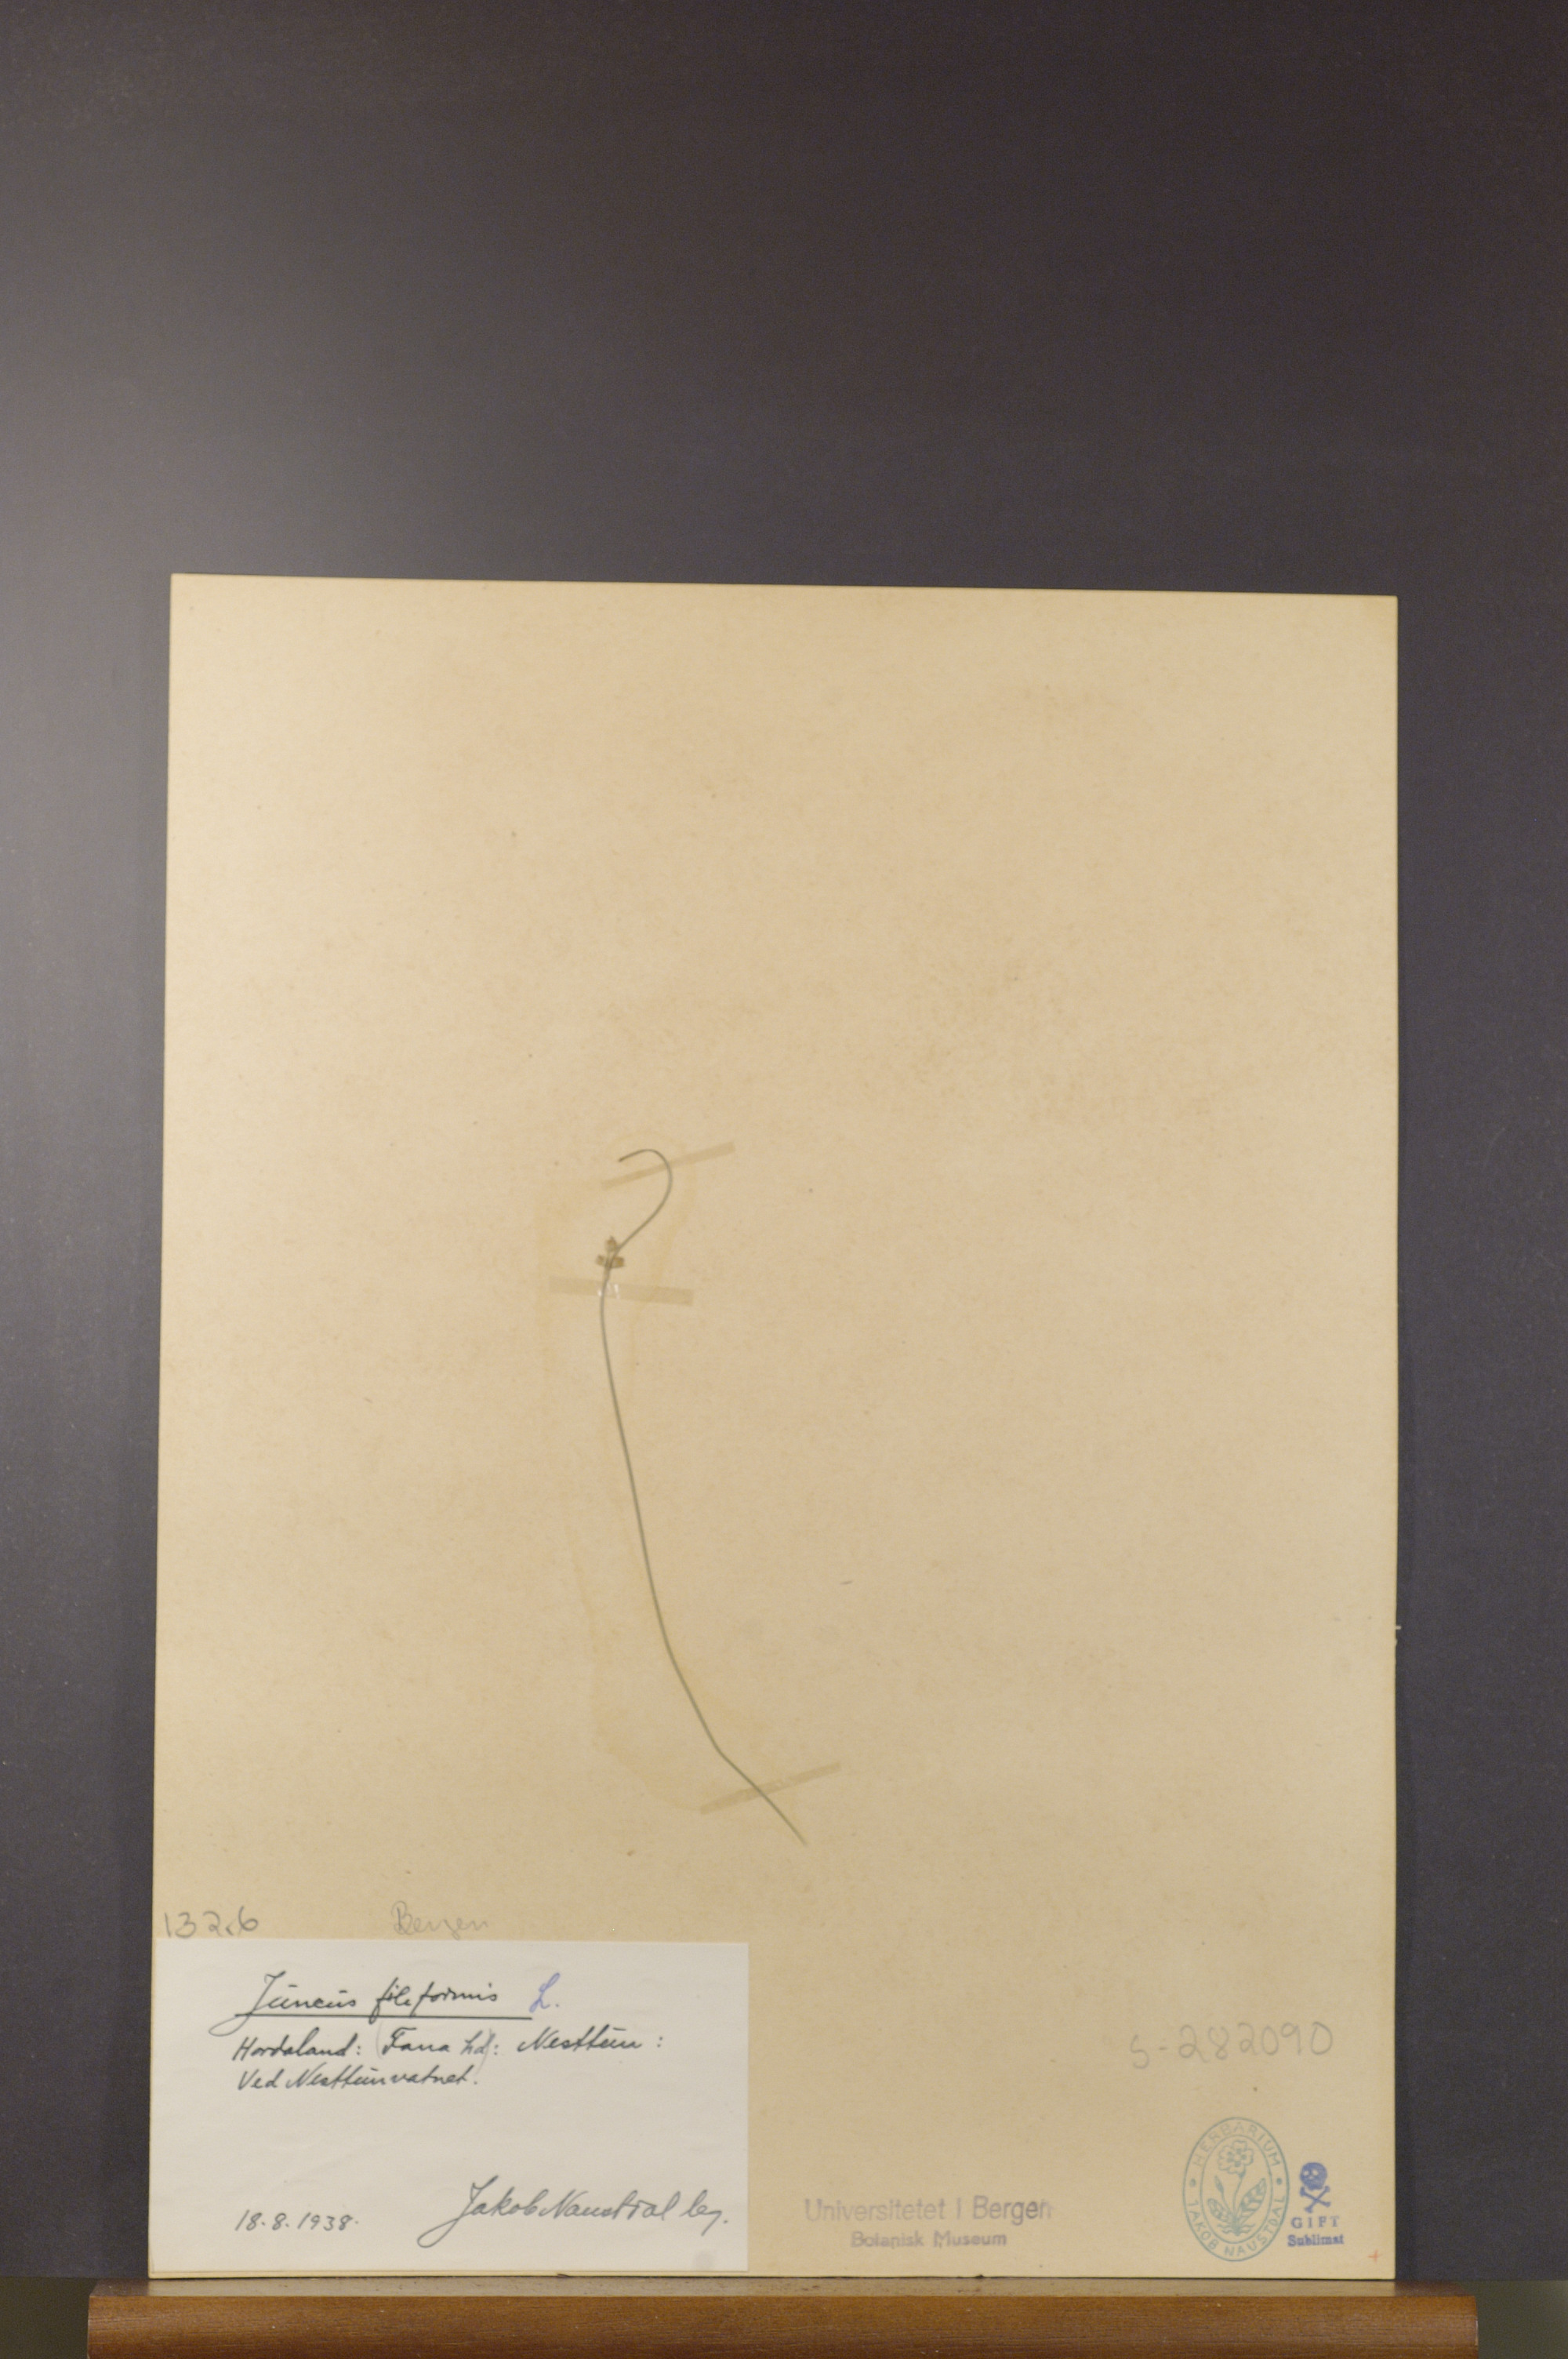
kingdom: Plantae
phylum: Tracheophyta
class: Liliopsida
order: Poales
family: Juncaceae
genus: Juncus
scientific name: Juncus filiformis
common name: Thread rush
